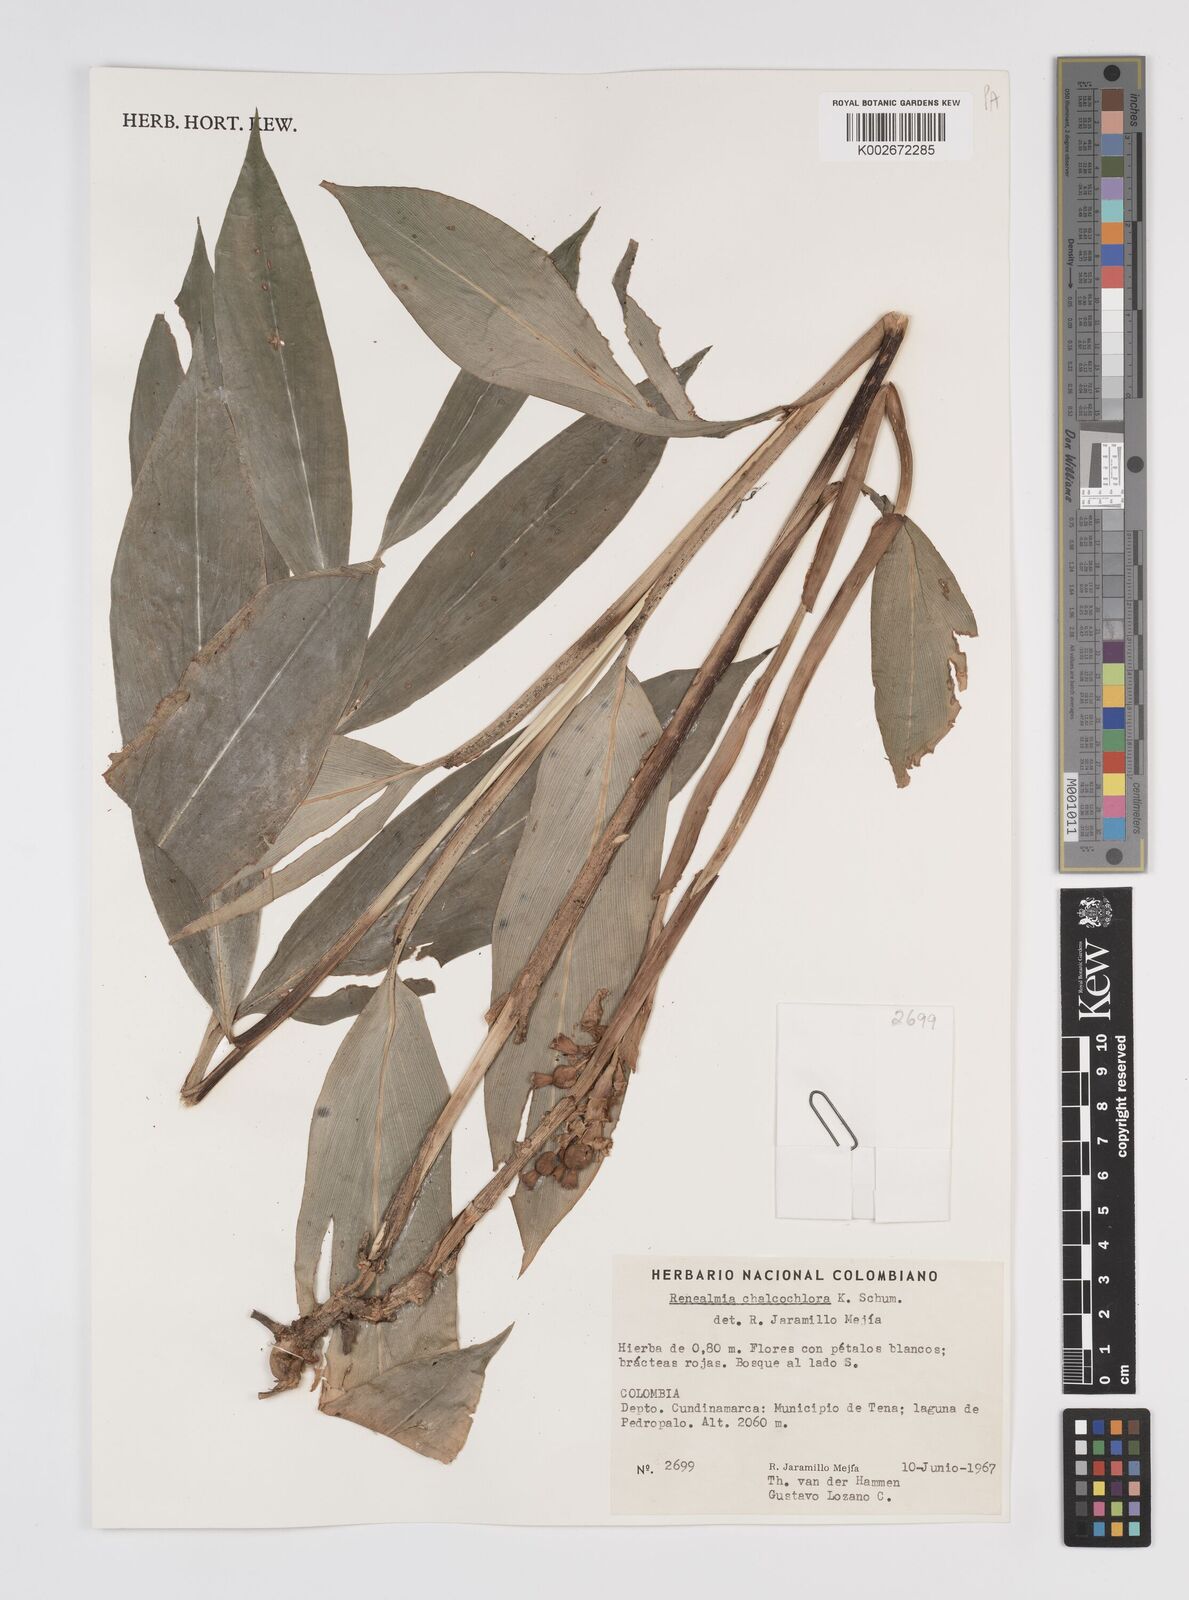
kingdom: Plantae
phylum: Tracheophyta
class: Liliopsida
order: Zingiberales
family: Zingiberaceae
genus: Renealmia
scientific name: Renealmia chalcochlora
